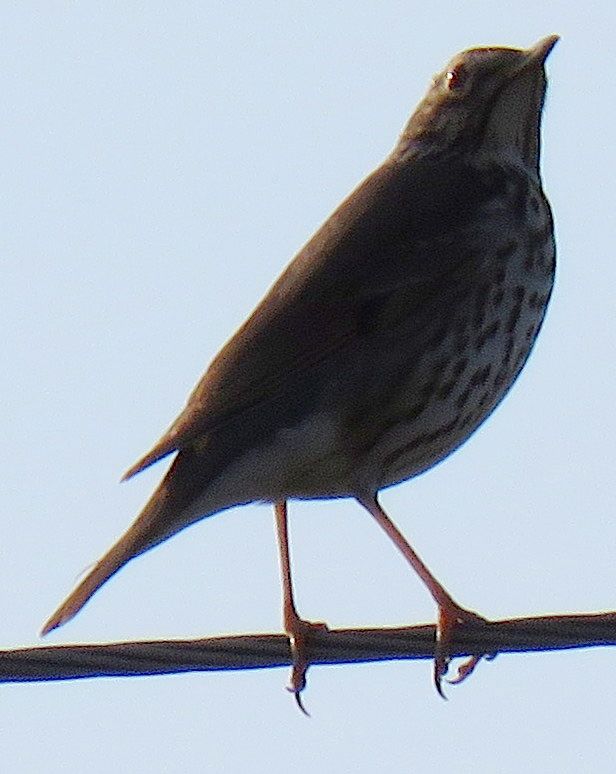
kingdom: Animalia
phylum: Chordata
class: Aves
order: Passeriformes
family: Turdidae
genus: Turdus
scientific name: Turdus philomelos
